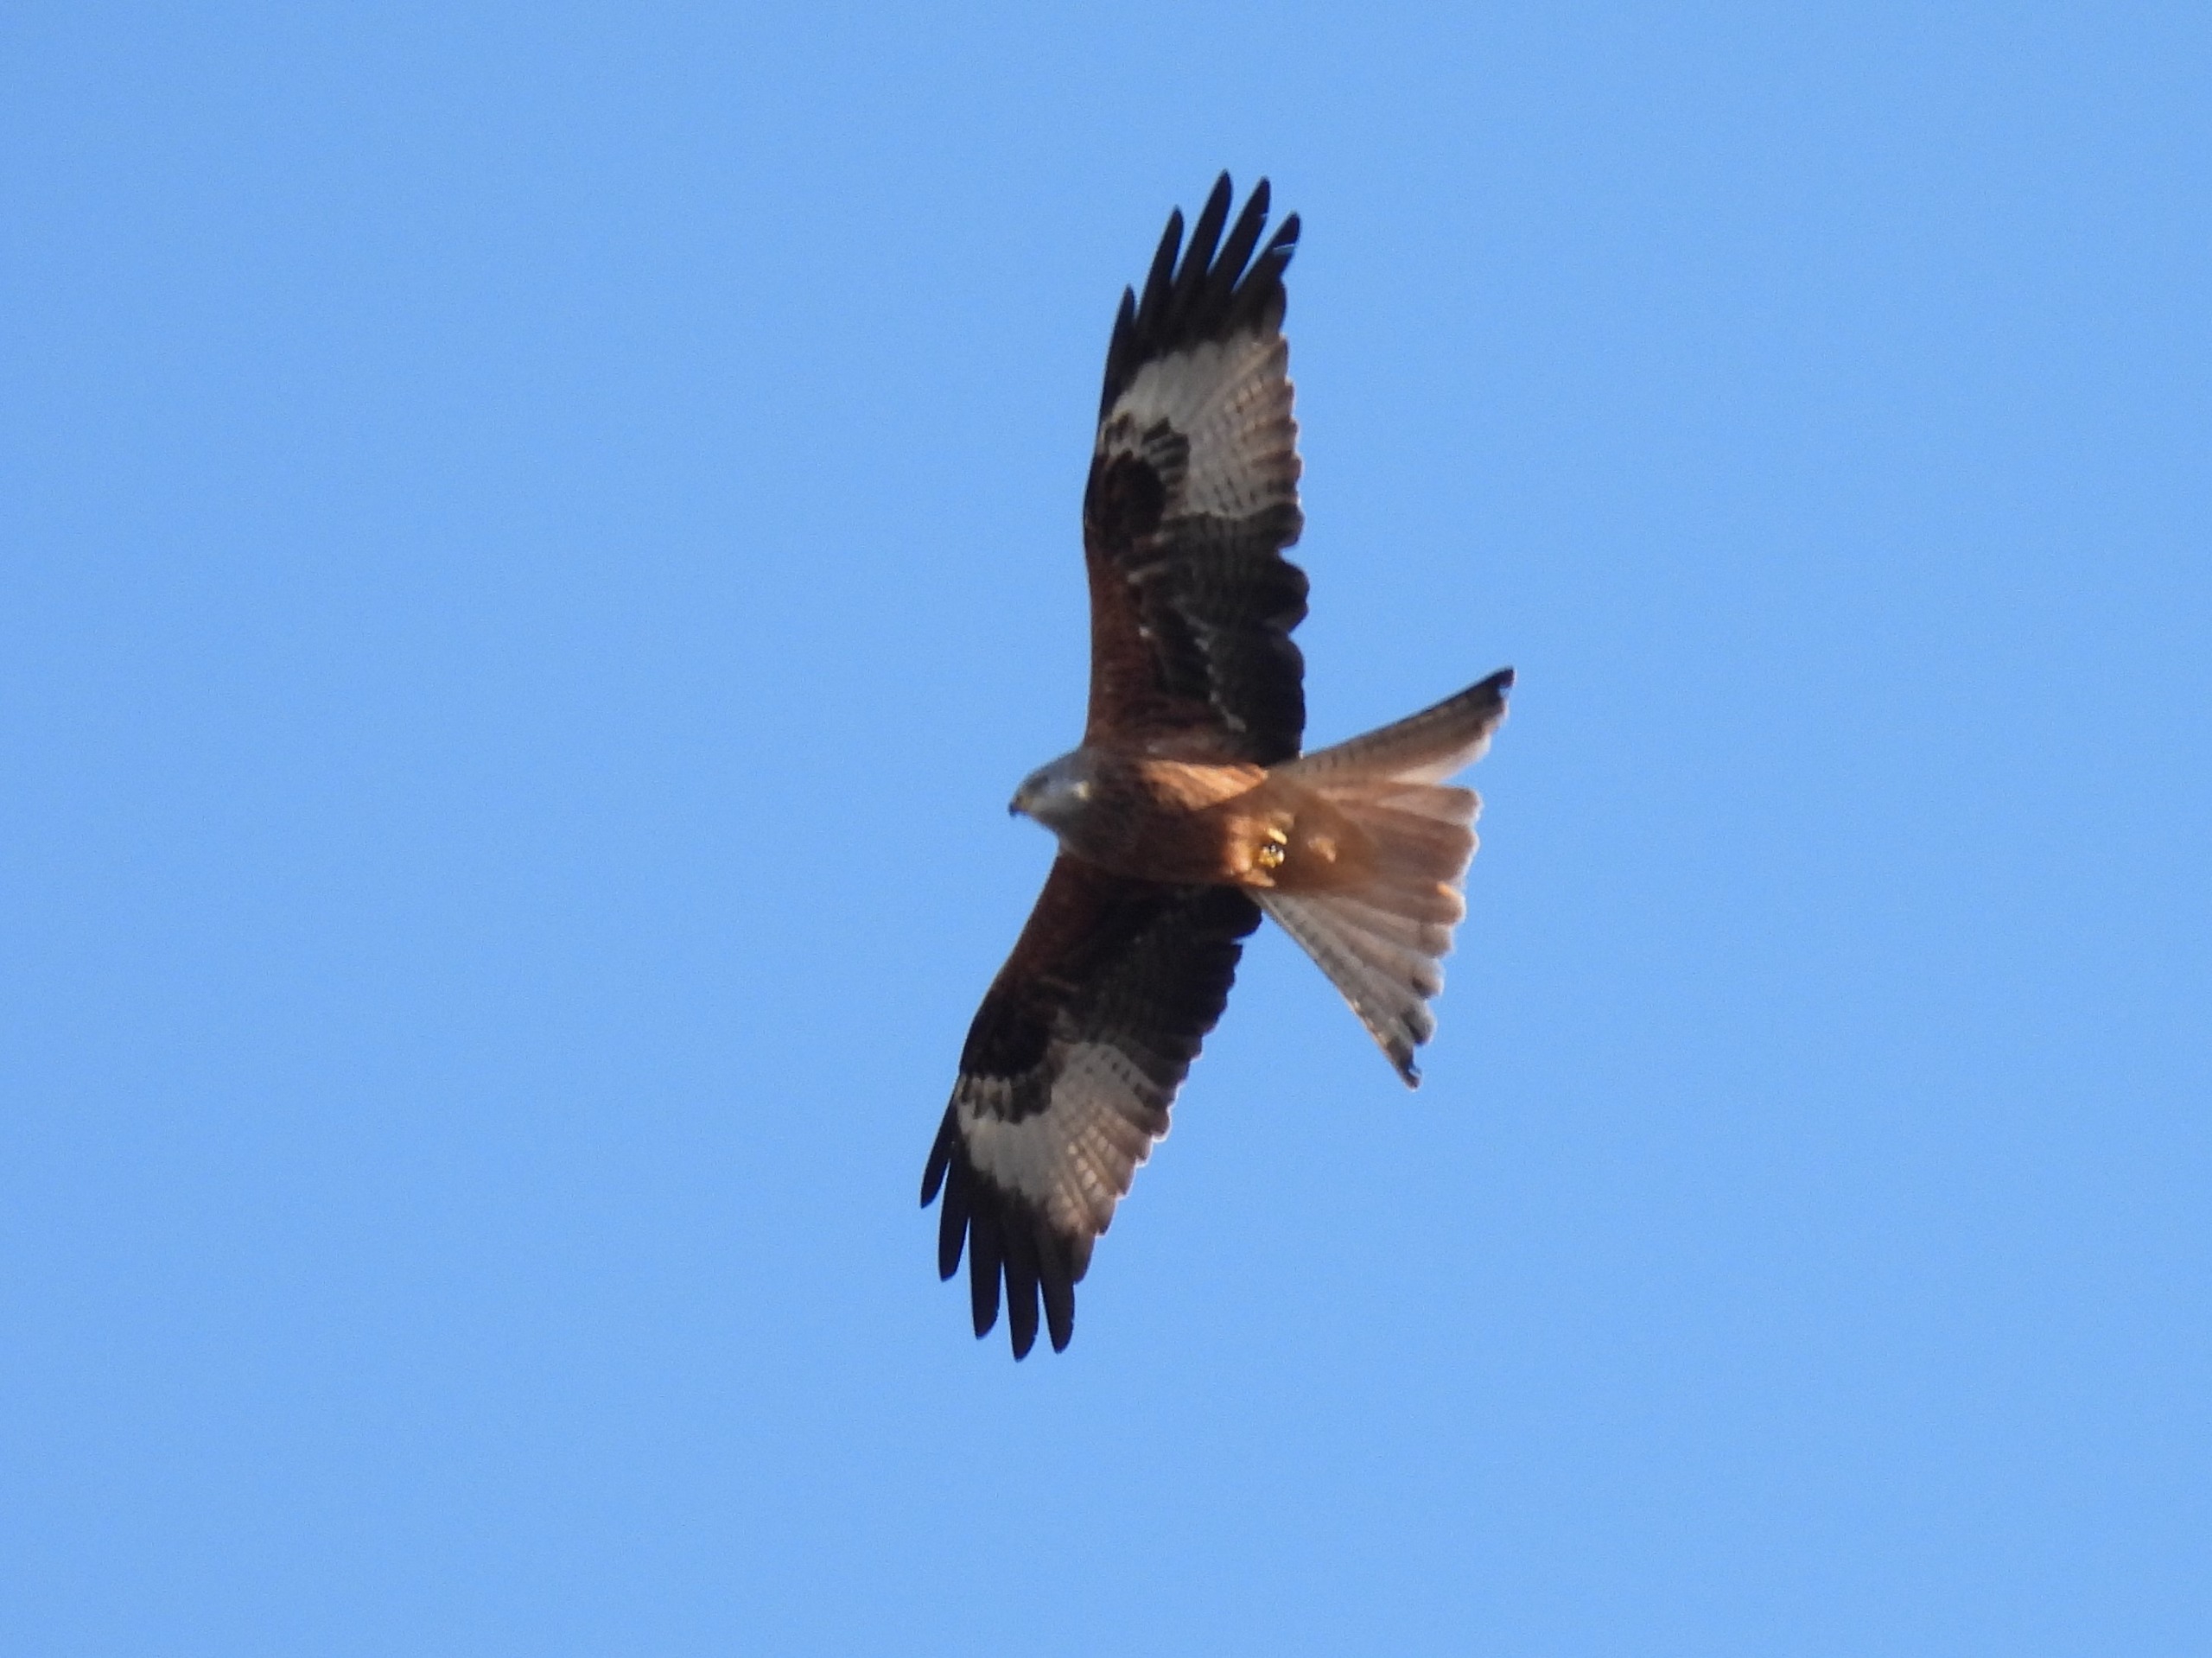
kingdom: Animalia
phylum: Chordata
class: Aves
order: Accipitriformes
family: Accipitridae
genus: Milvus
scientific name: Milvus milvus
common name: Rød glente
